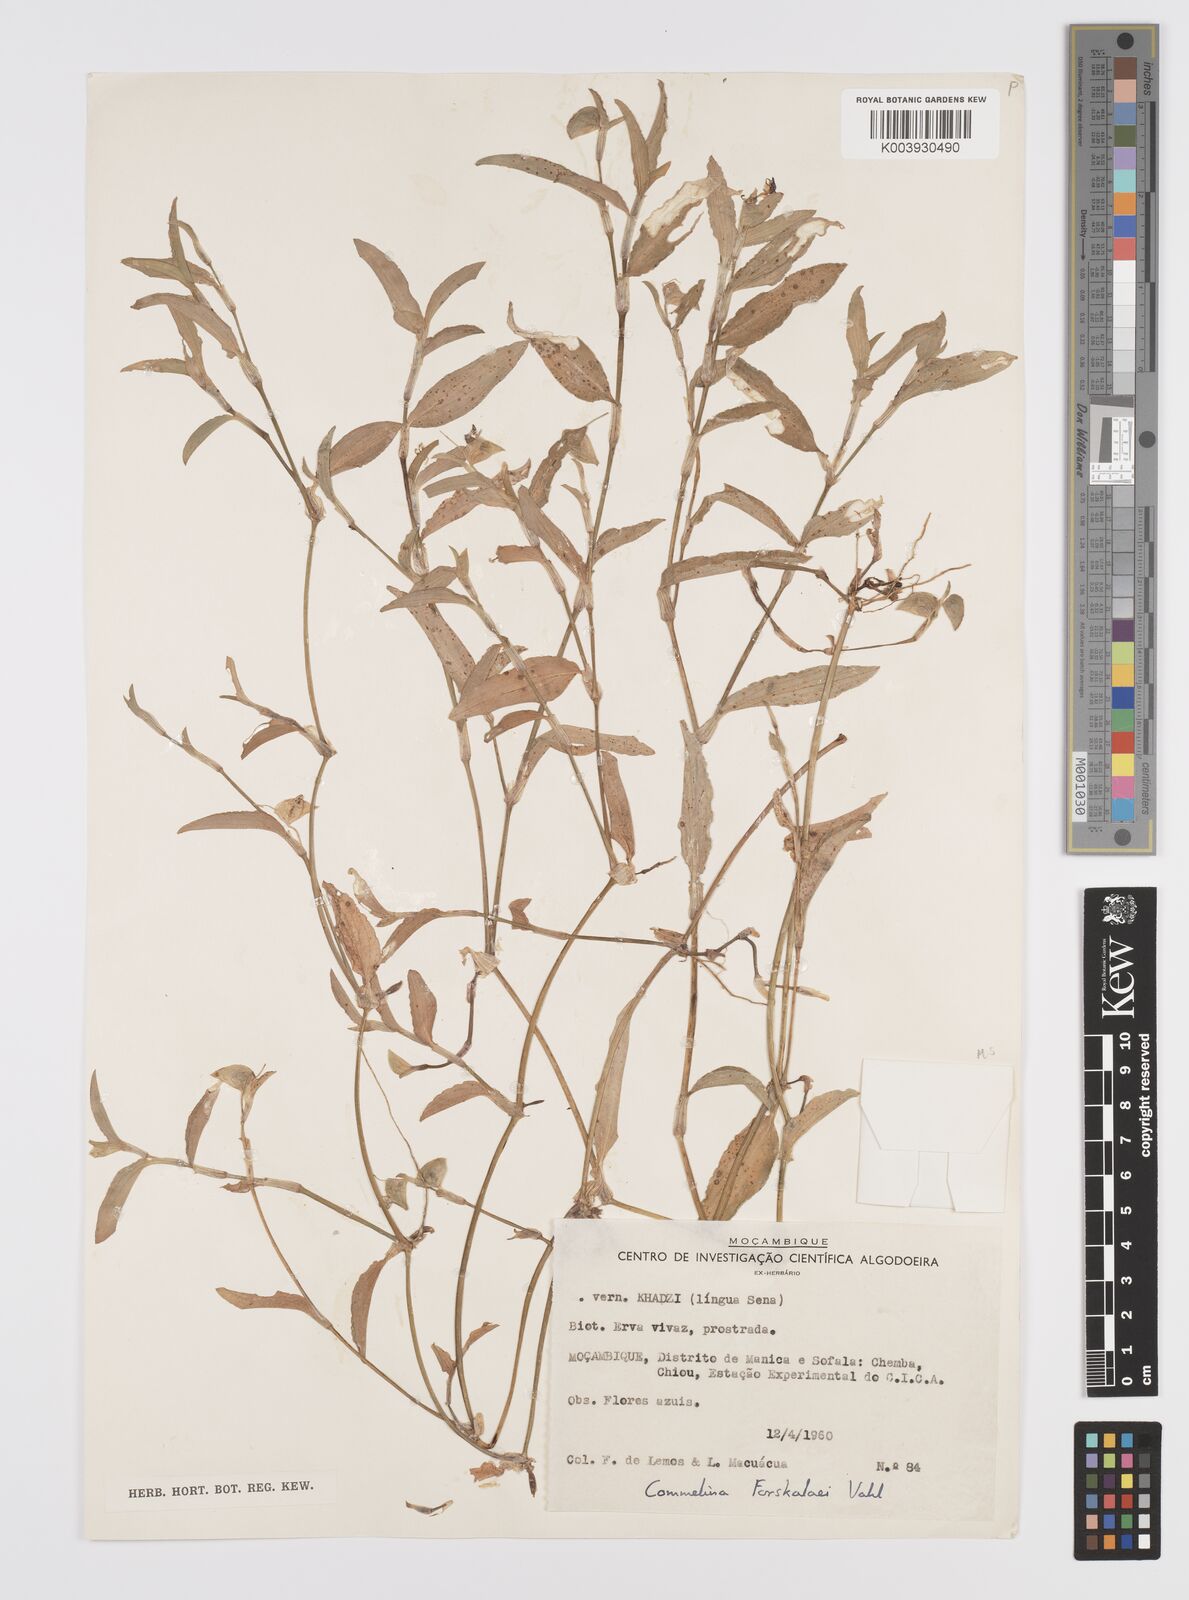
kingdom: Plantae
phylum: Tracheophyta
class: Liliopsida
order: Commelinales
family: Commelinaceae
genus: Commelina
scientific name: Commelina forskaolii
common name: Rat's ear
